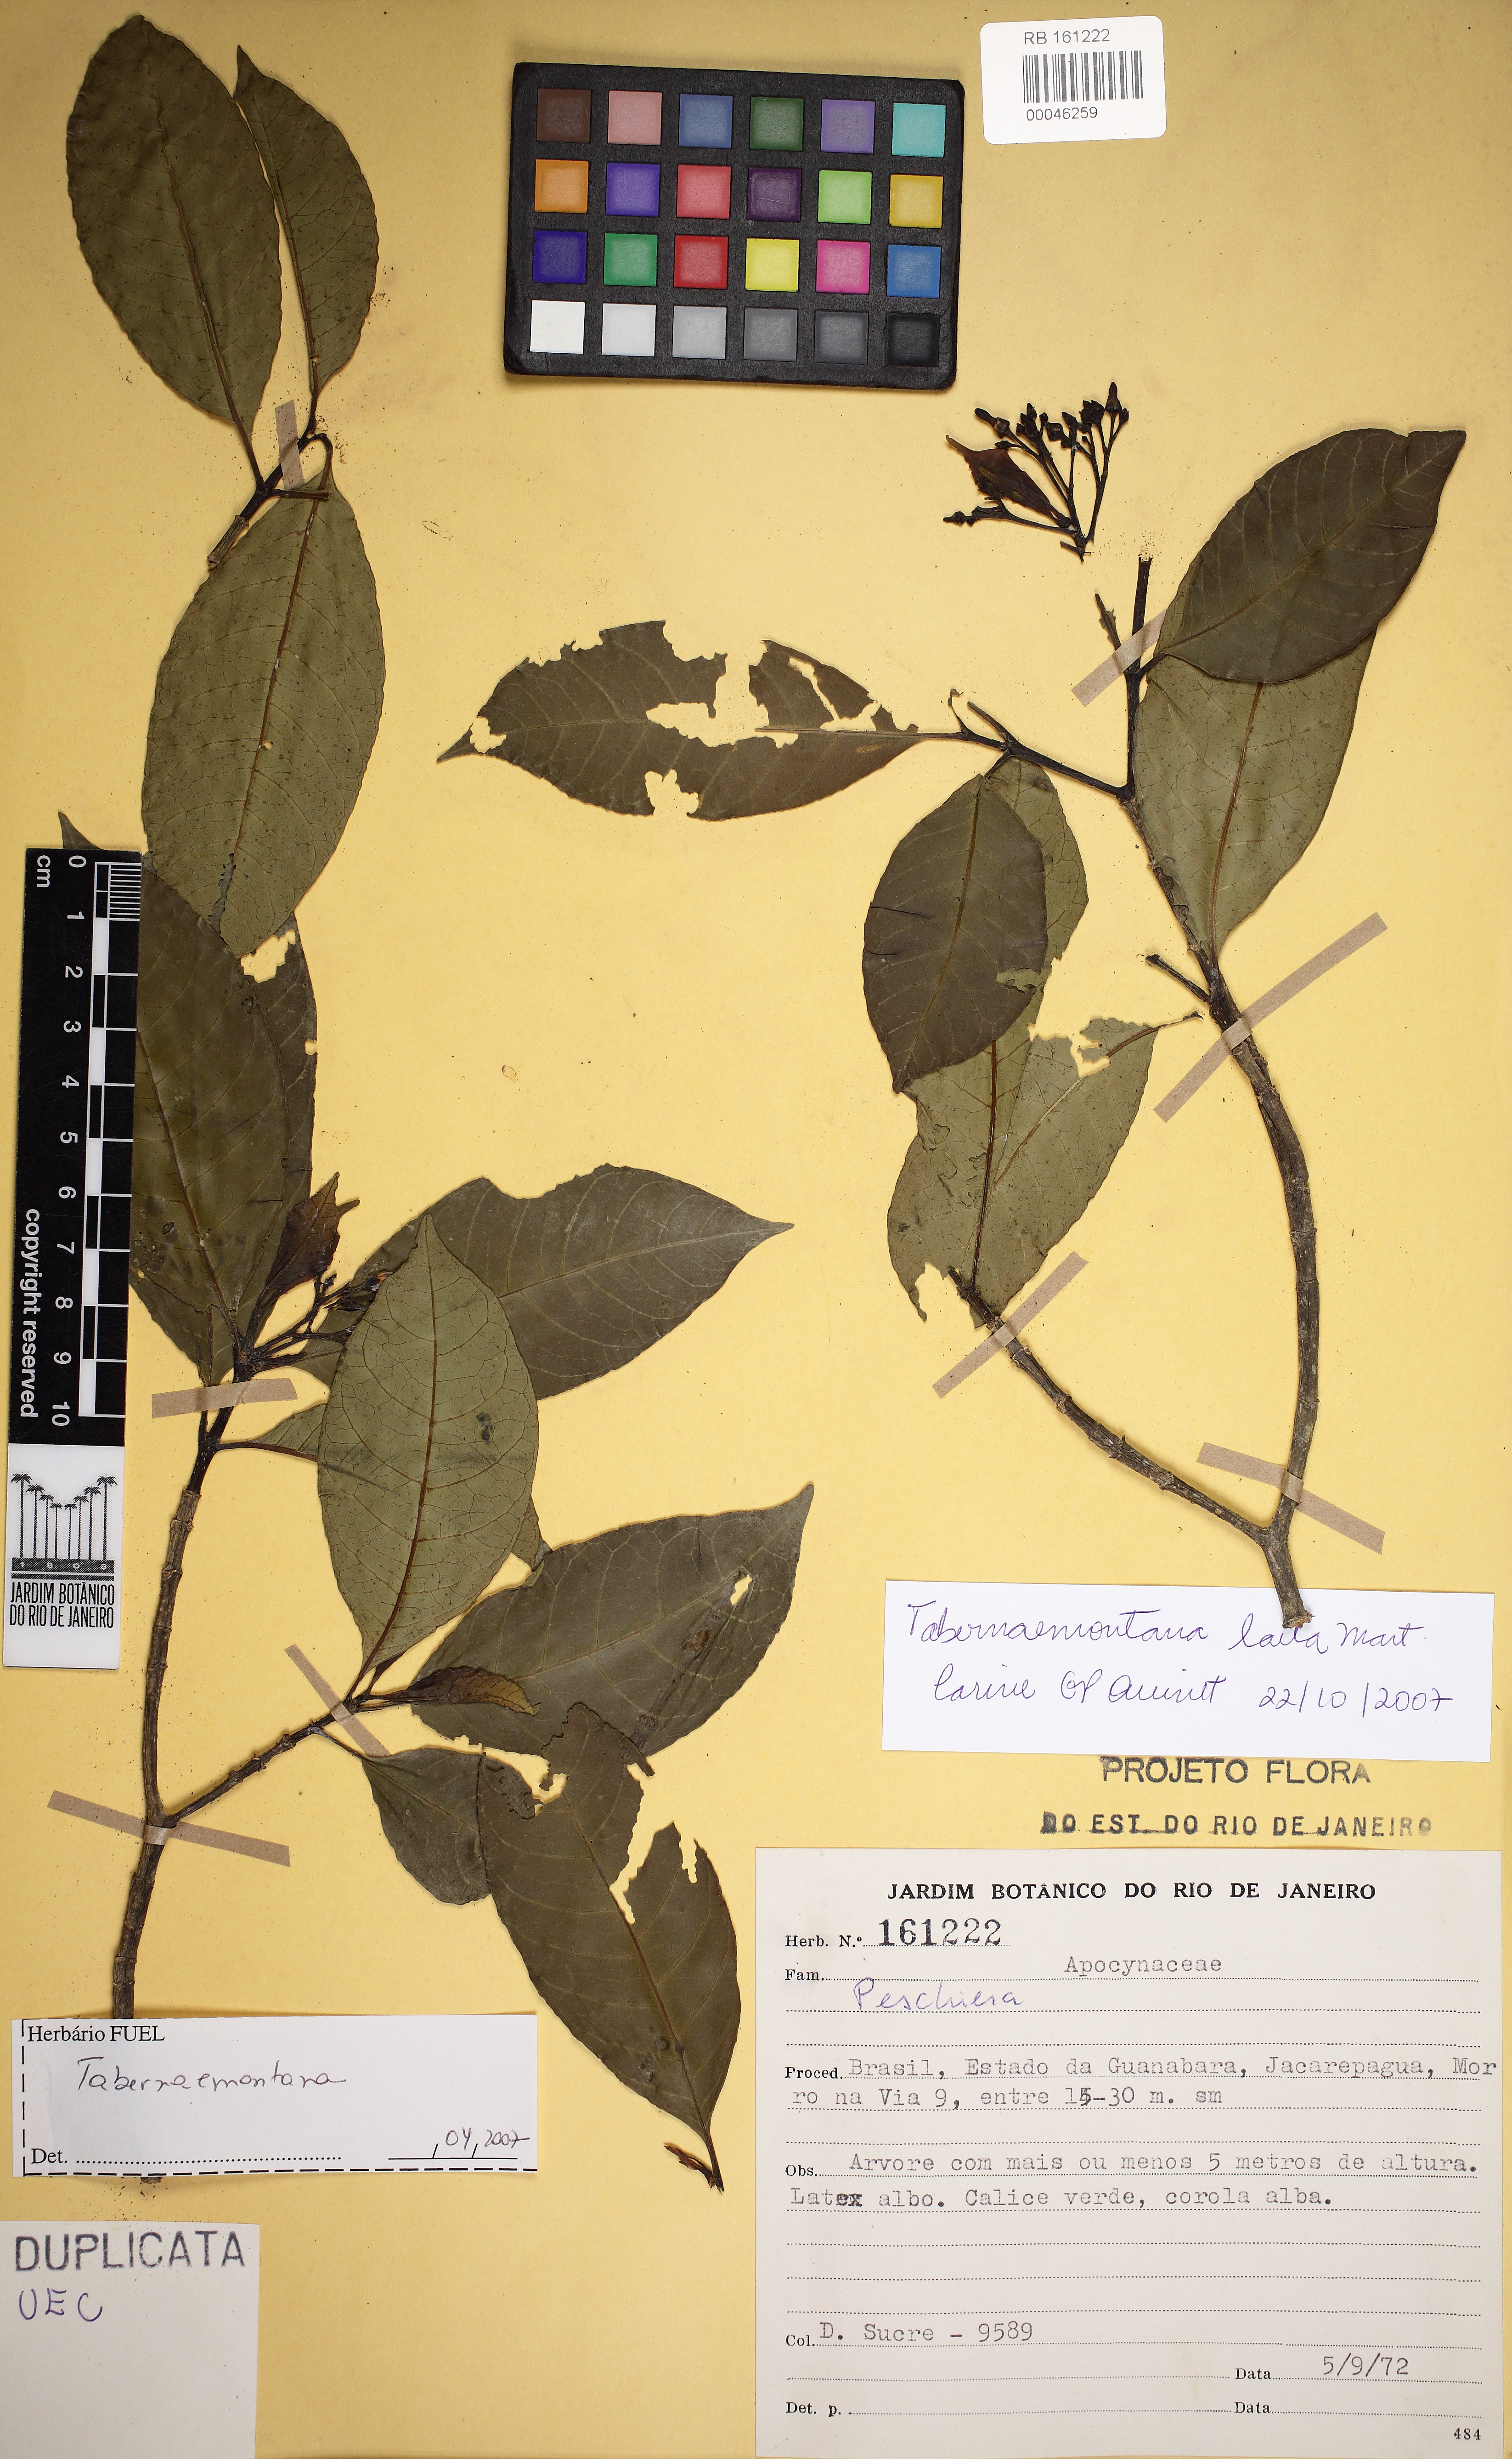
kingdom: Plantae
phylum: Tracheophyta
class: Magnoliopsida
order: Gentianales
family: Apocynaceae
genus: Tabernaemontana
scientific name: Tabernaemontana laeta
